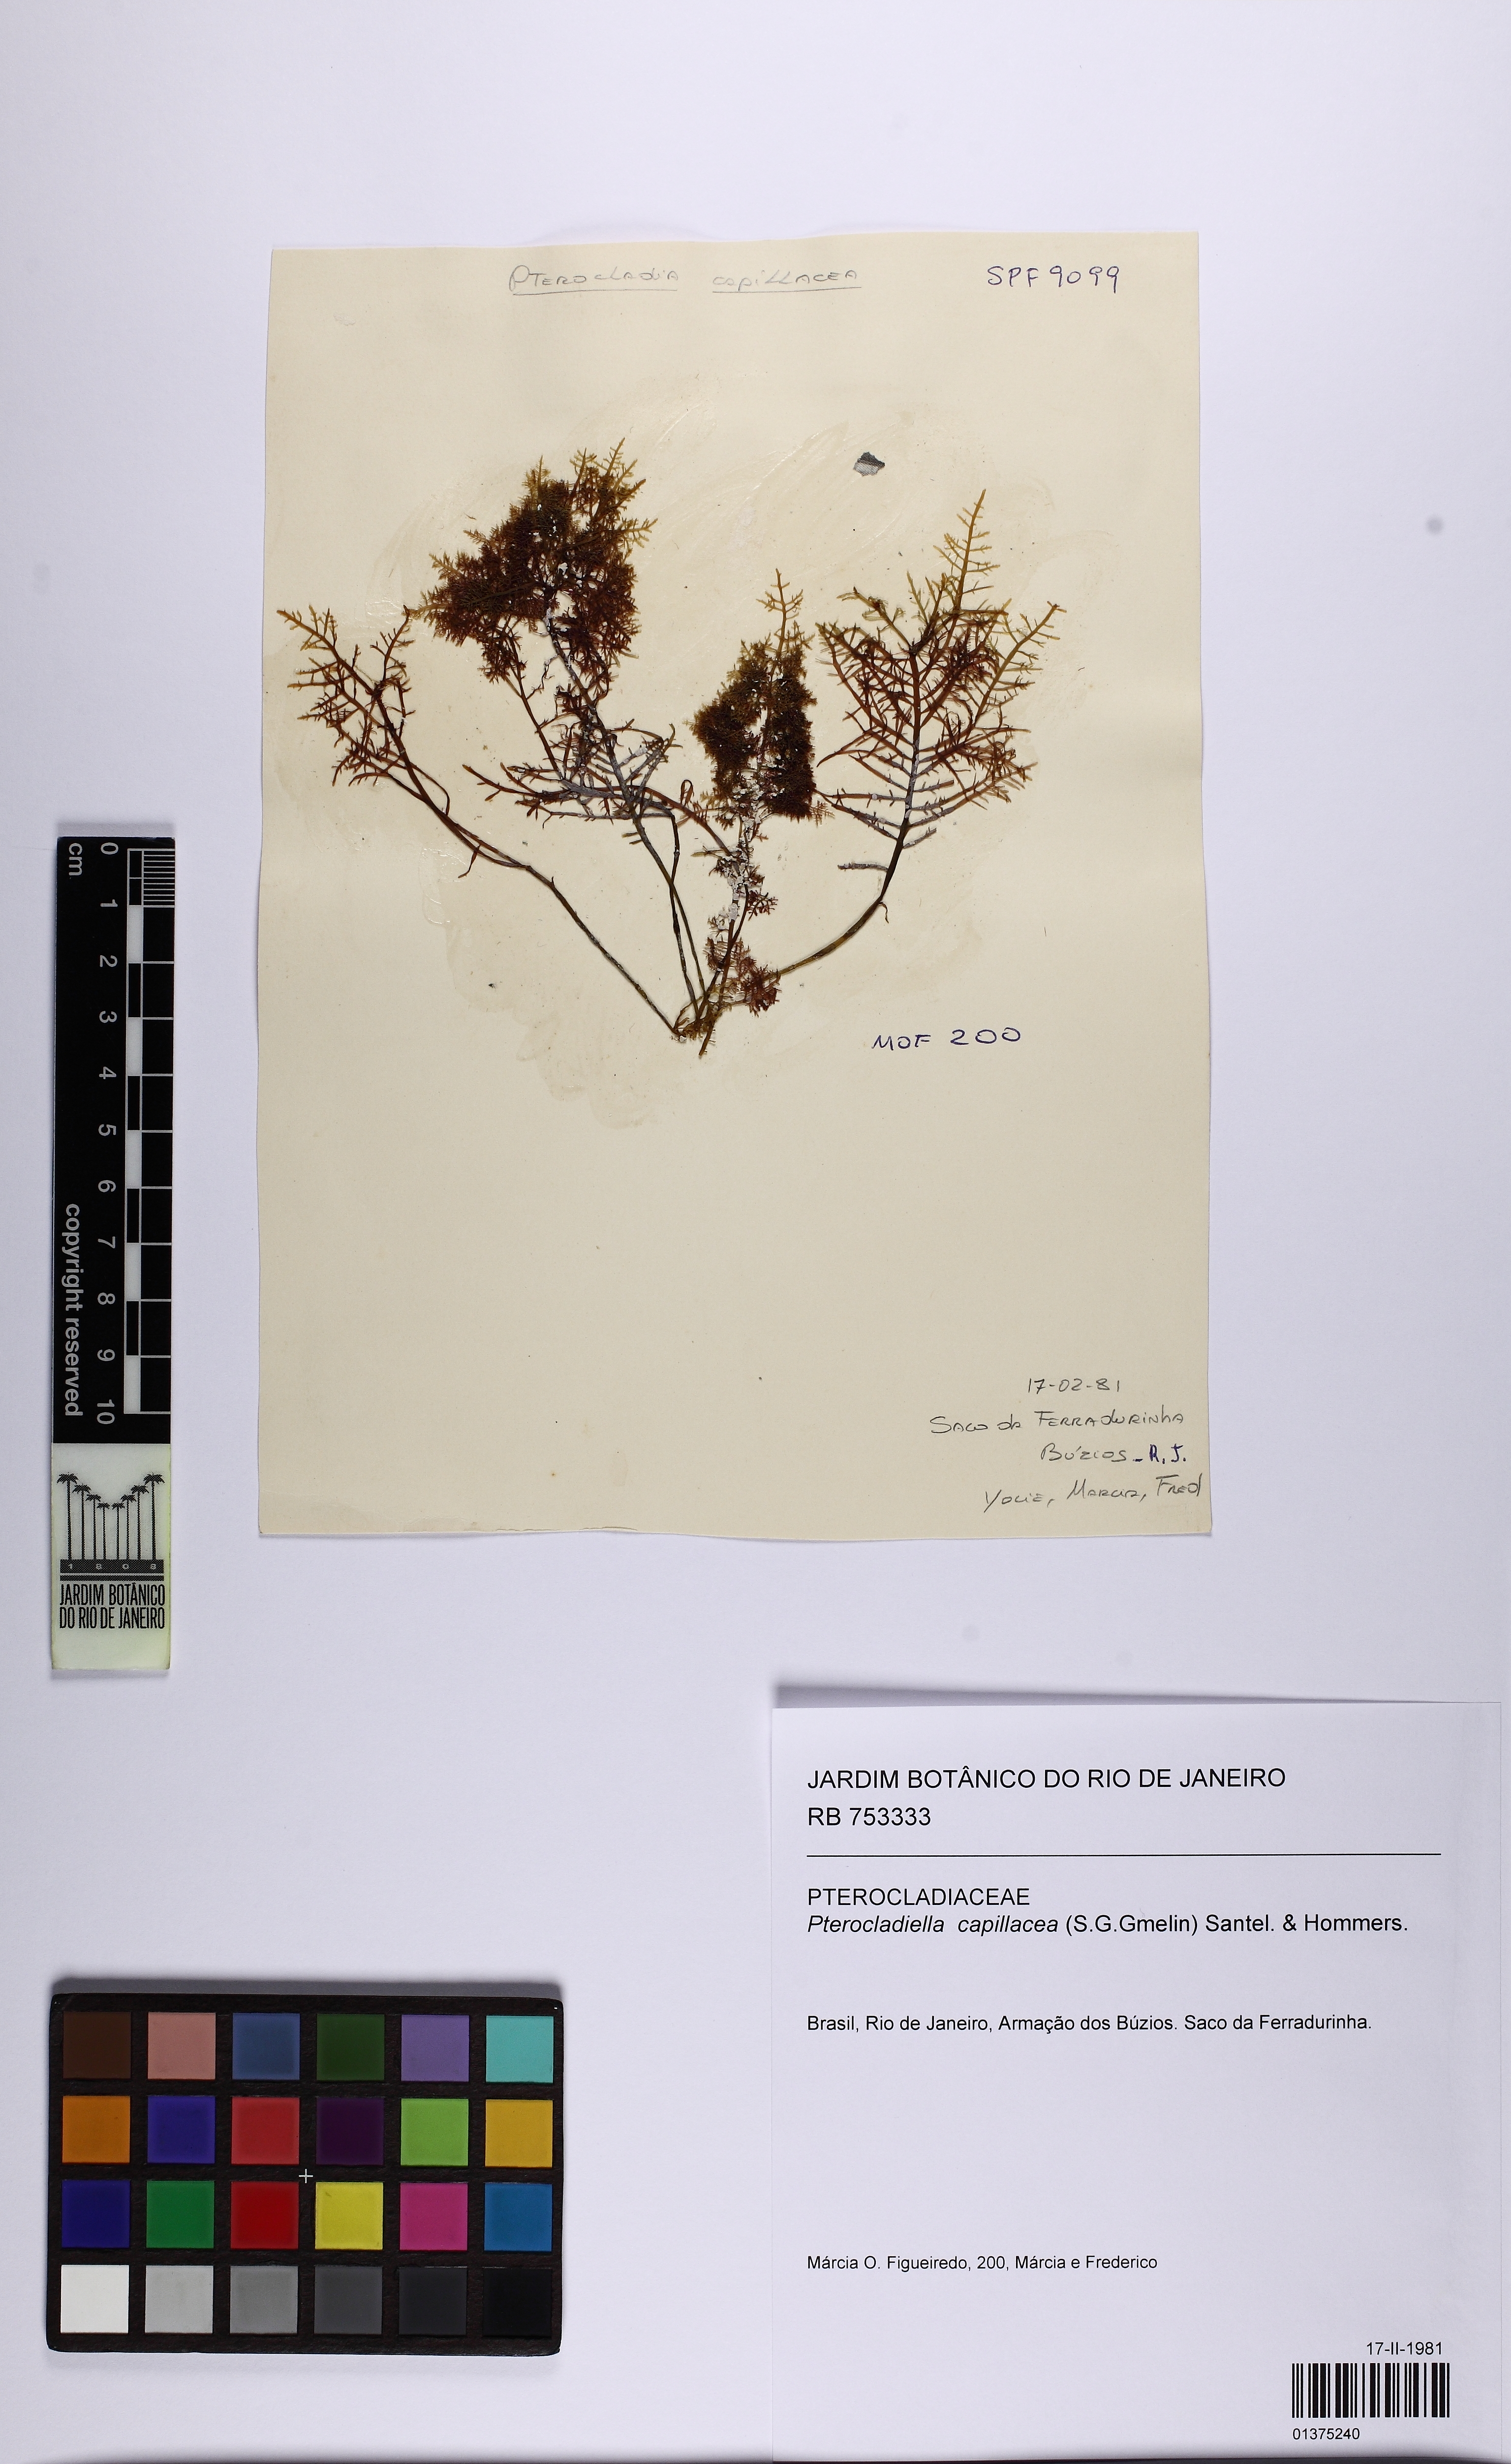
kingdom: Plantae
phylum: Rhodophyta
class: Florideophyceae
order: Gelidiales
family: Pterocladiaceae
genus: Pterocladiella
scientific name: Pterocladiella capillacea
